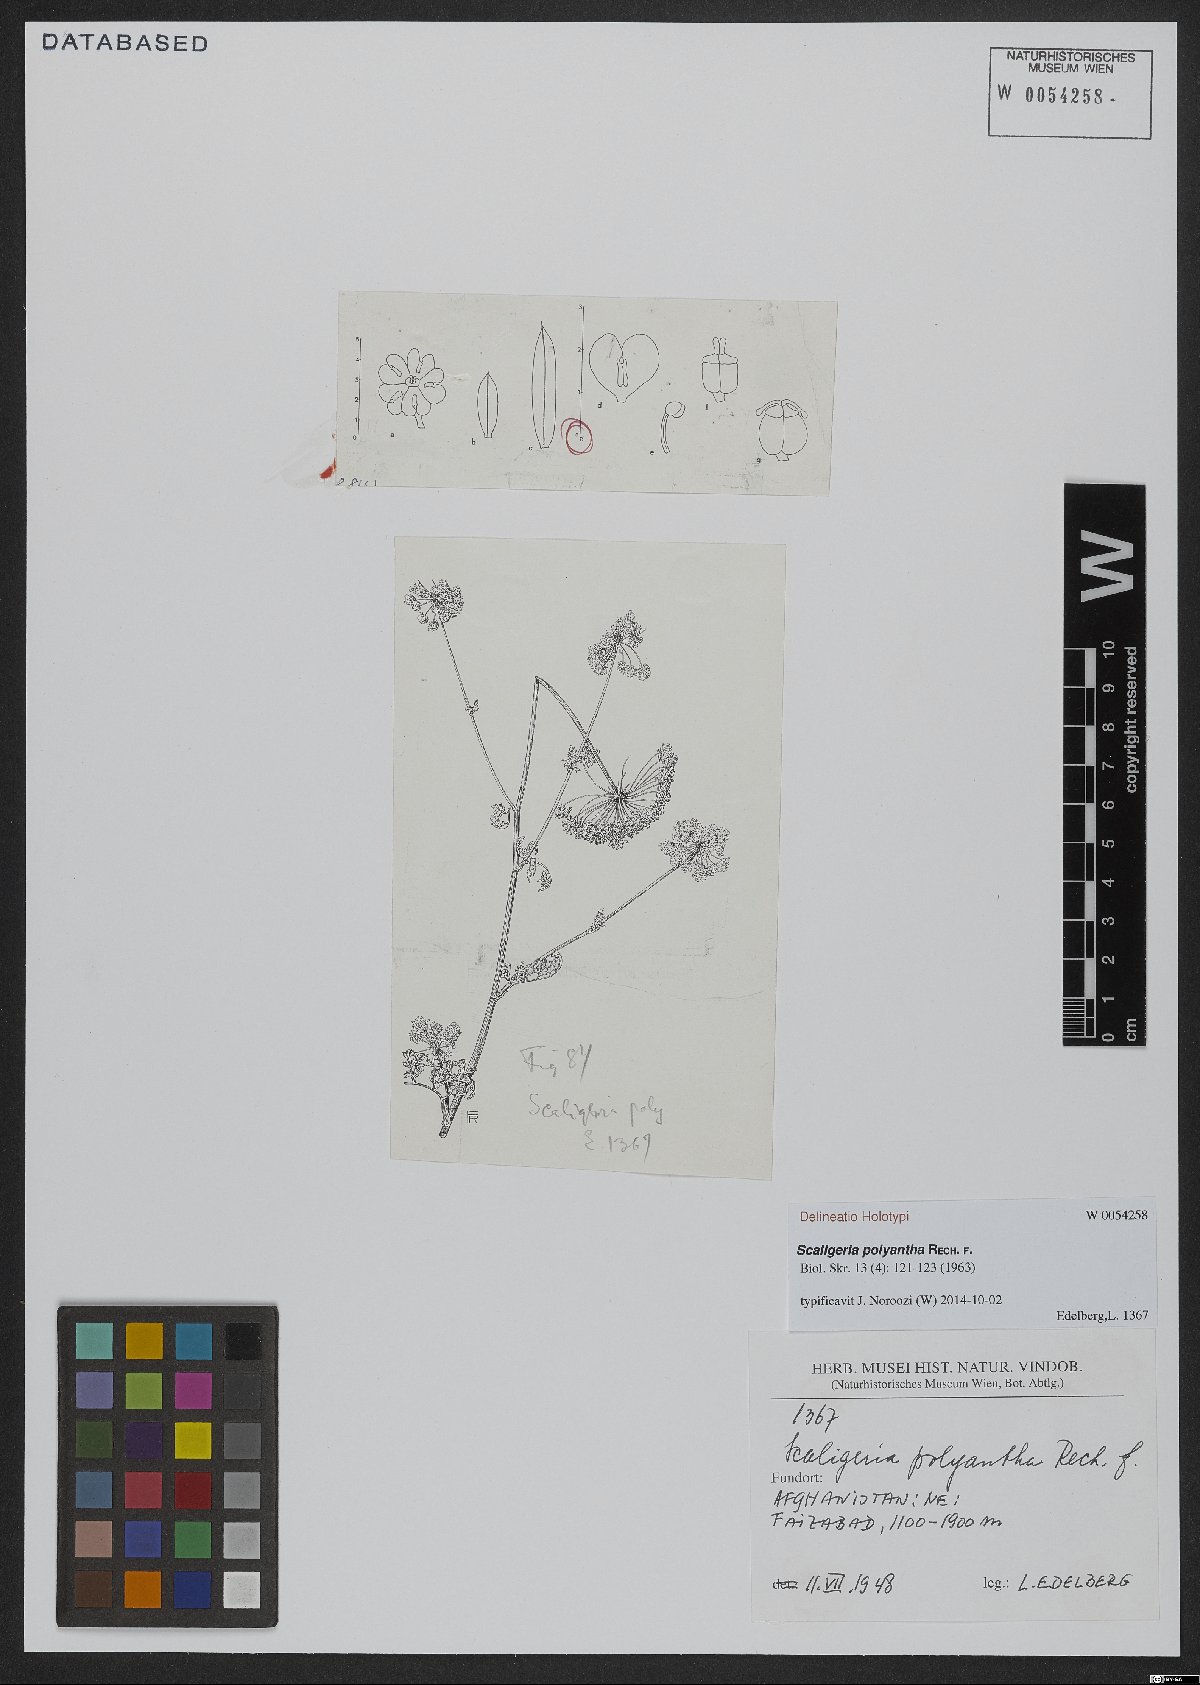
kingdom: Plantae
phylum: Tracheophyta
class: Magnoliopsida
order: Apiales
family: Apiaceae
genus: Scaligeria
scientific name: Scaligeria hirtula
